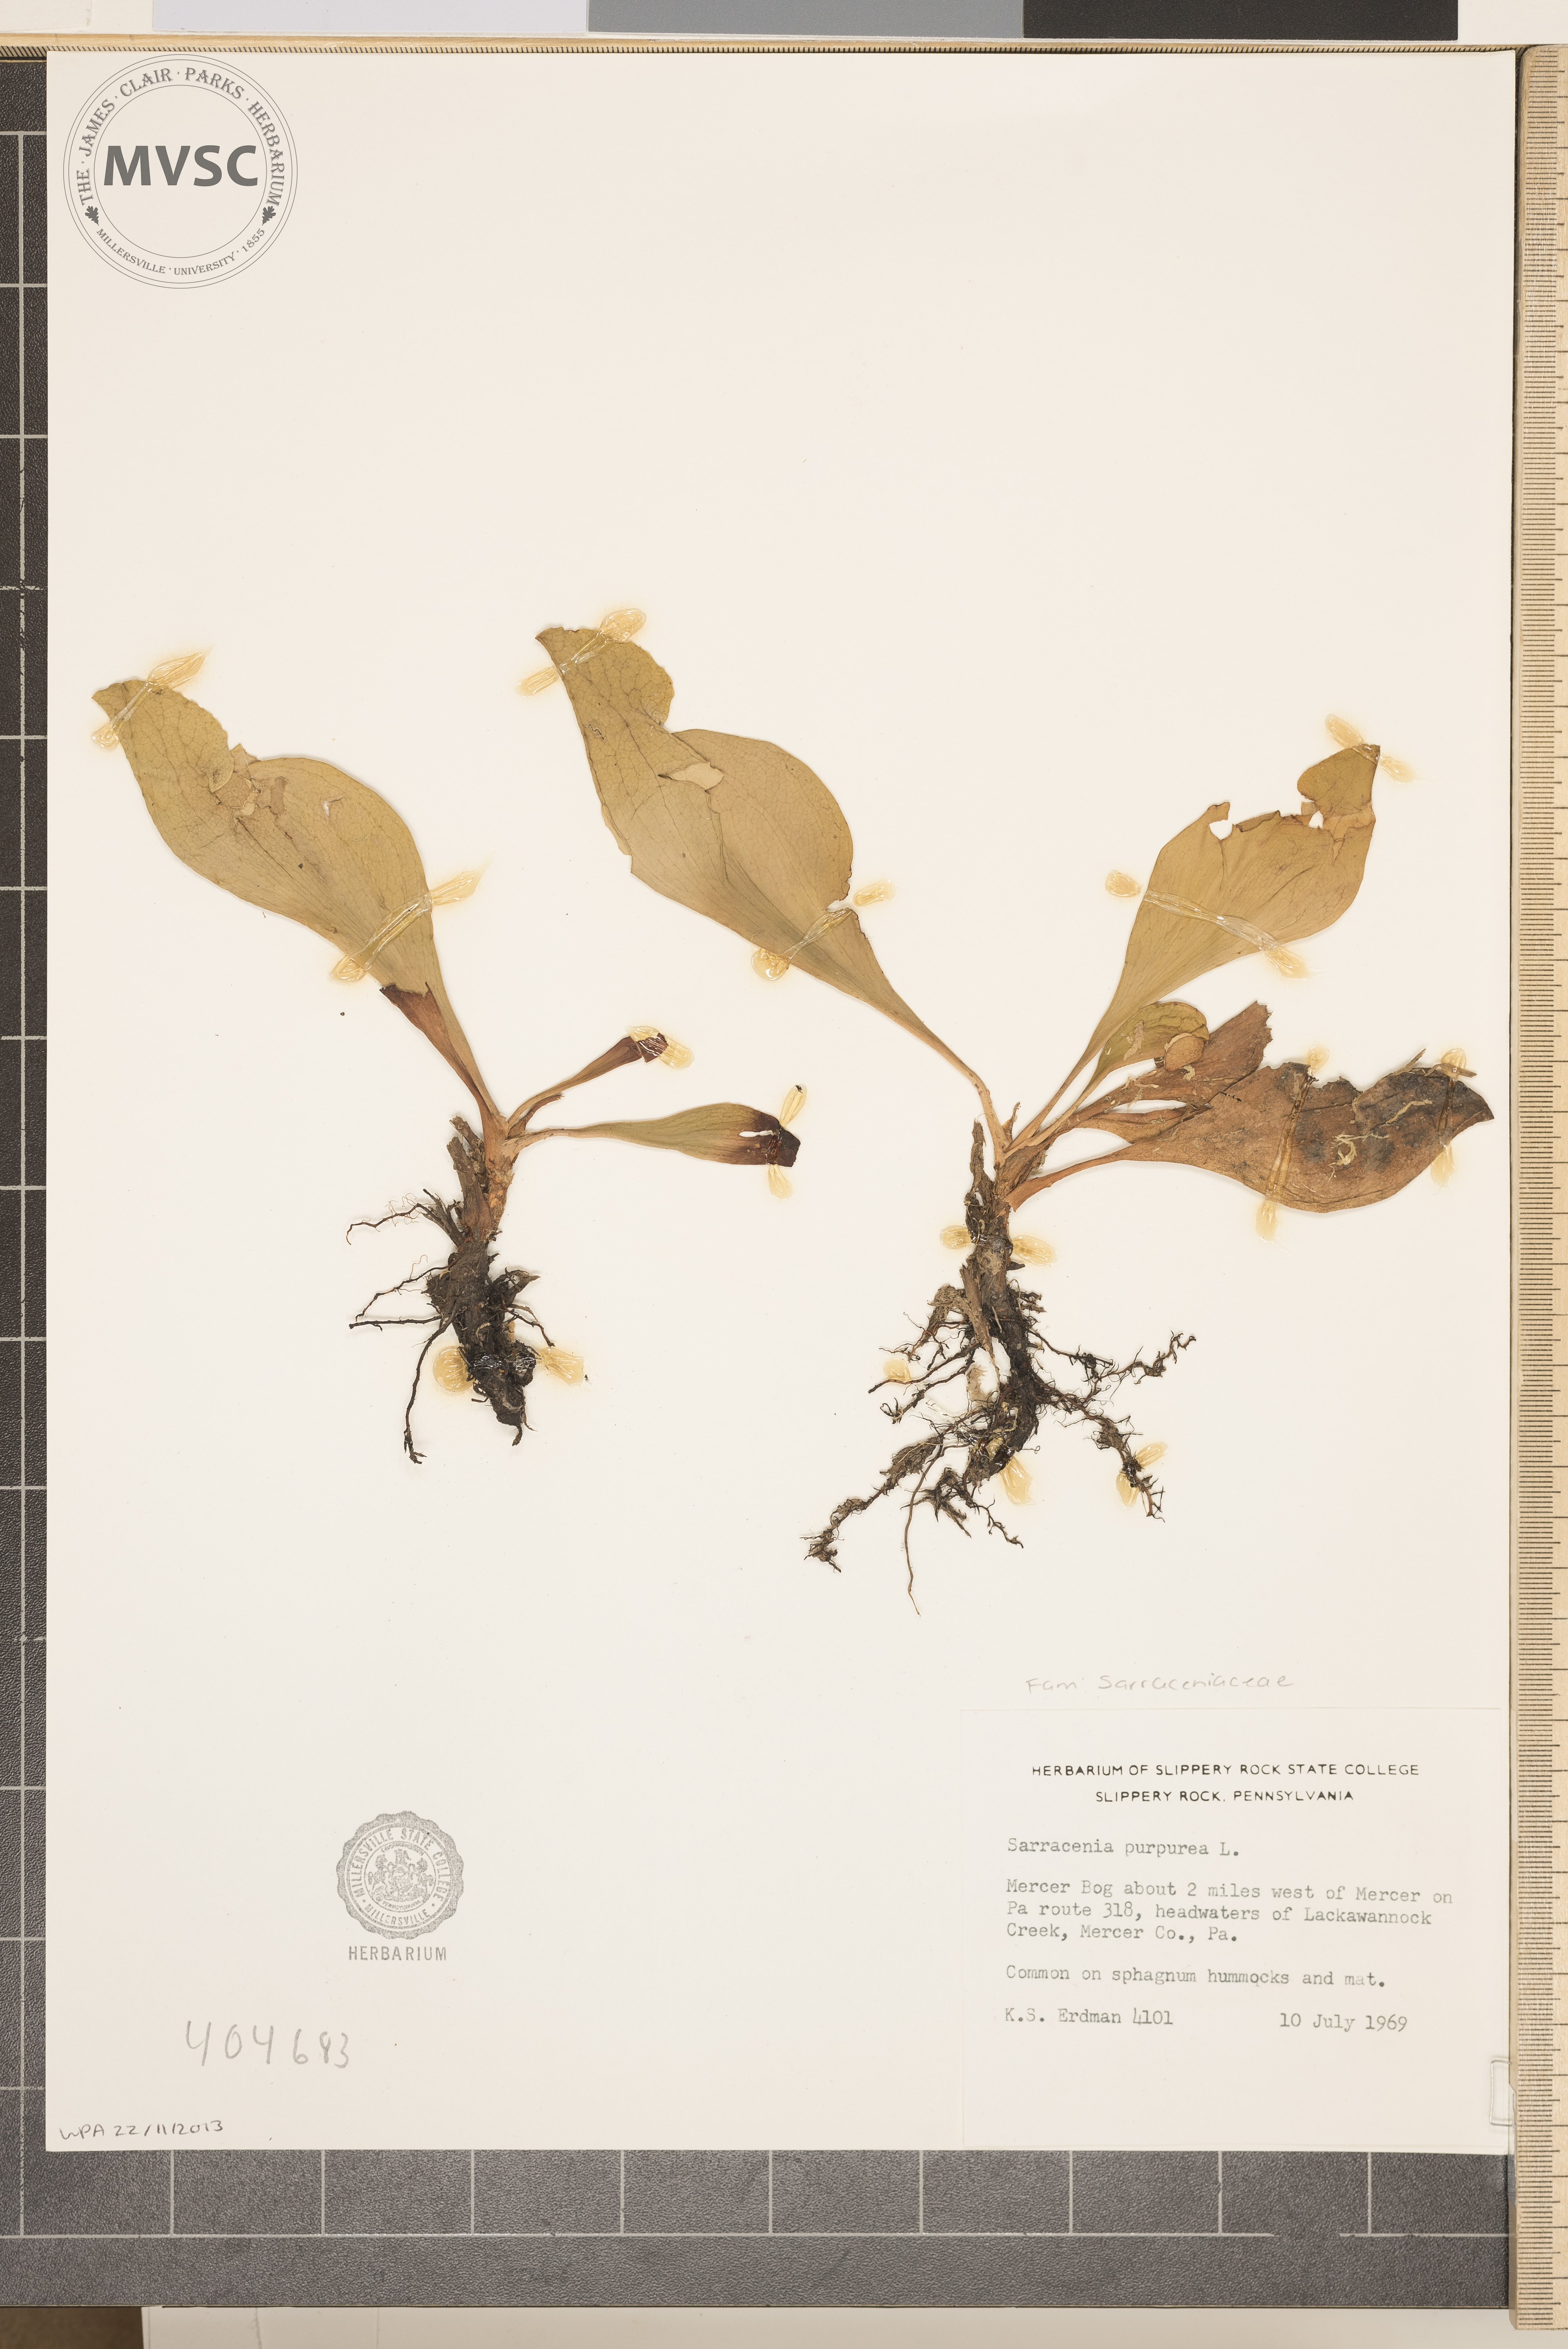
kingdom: Plantae
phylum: Tracheophyta
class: Magnoliopsida
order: Ericales
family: Sarraceniaceae
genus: Sarracenia
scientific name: Sarracenia purpurea
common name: Pitcherplant
